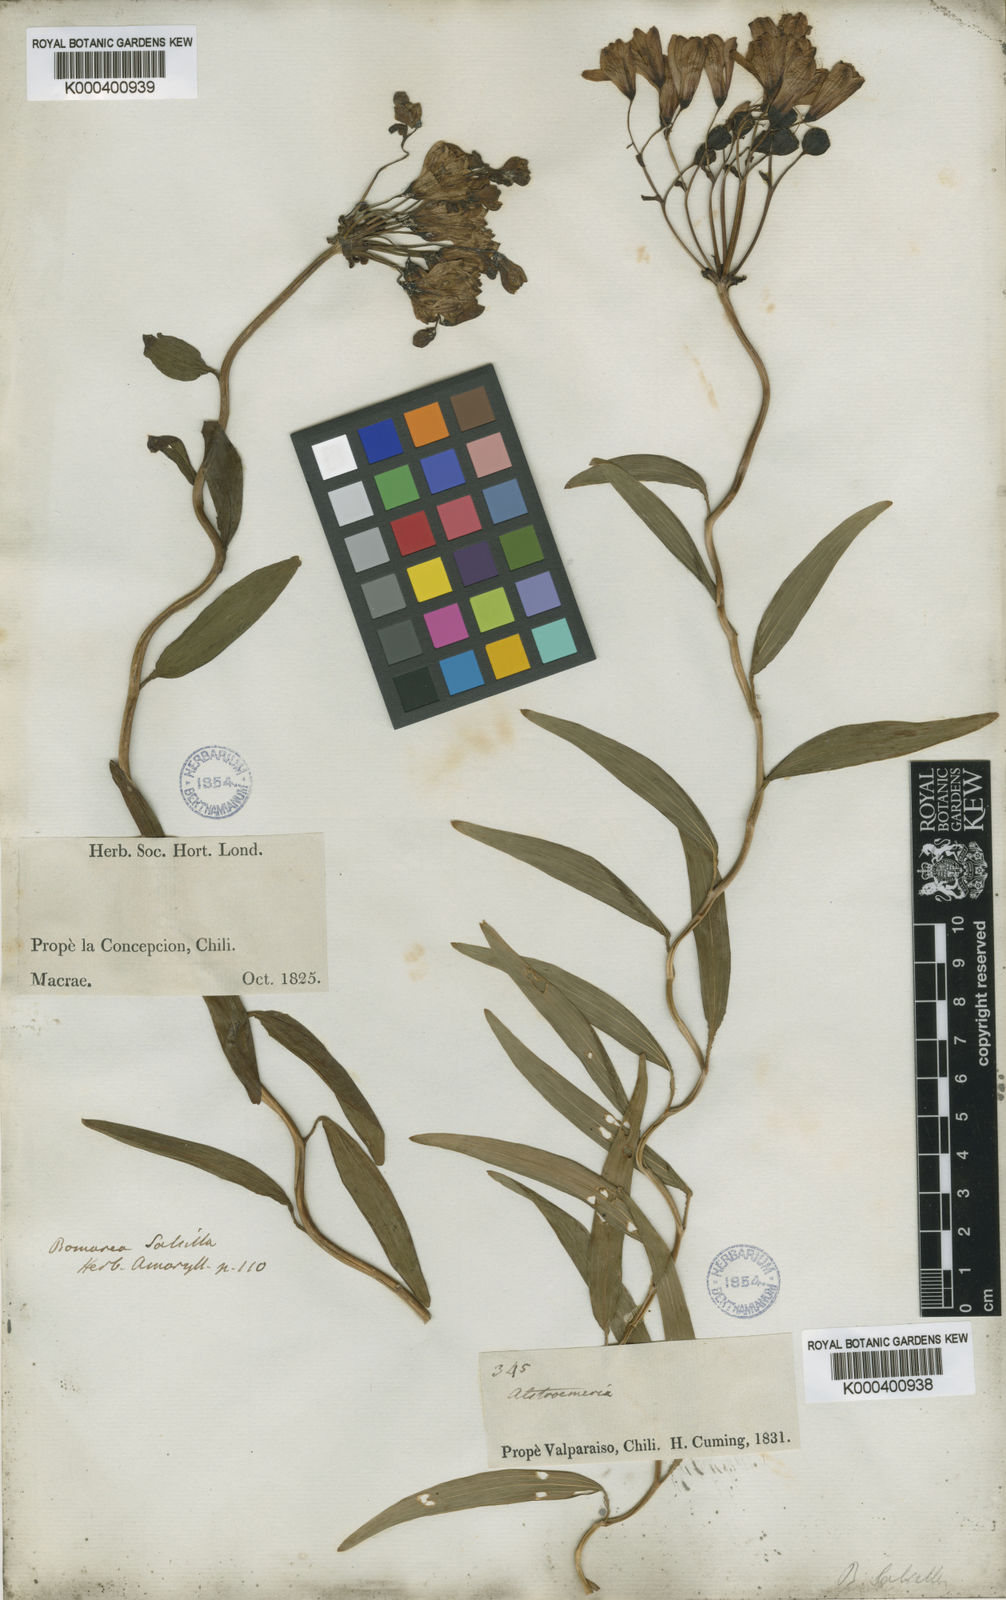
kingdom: Plantae
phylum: Tracheophyta
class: Liliopsida
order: Liliales
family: Alstroemeriaceae
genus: Bomarea
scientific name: Bomarea salsilla
